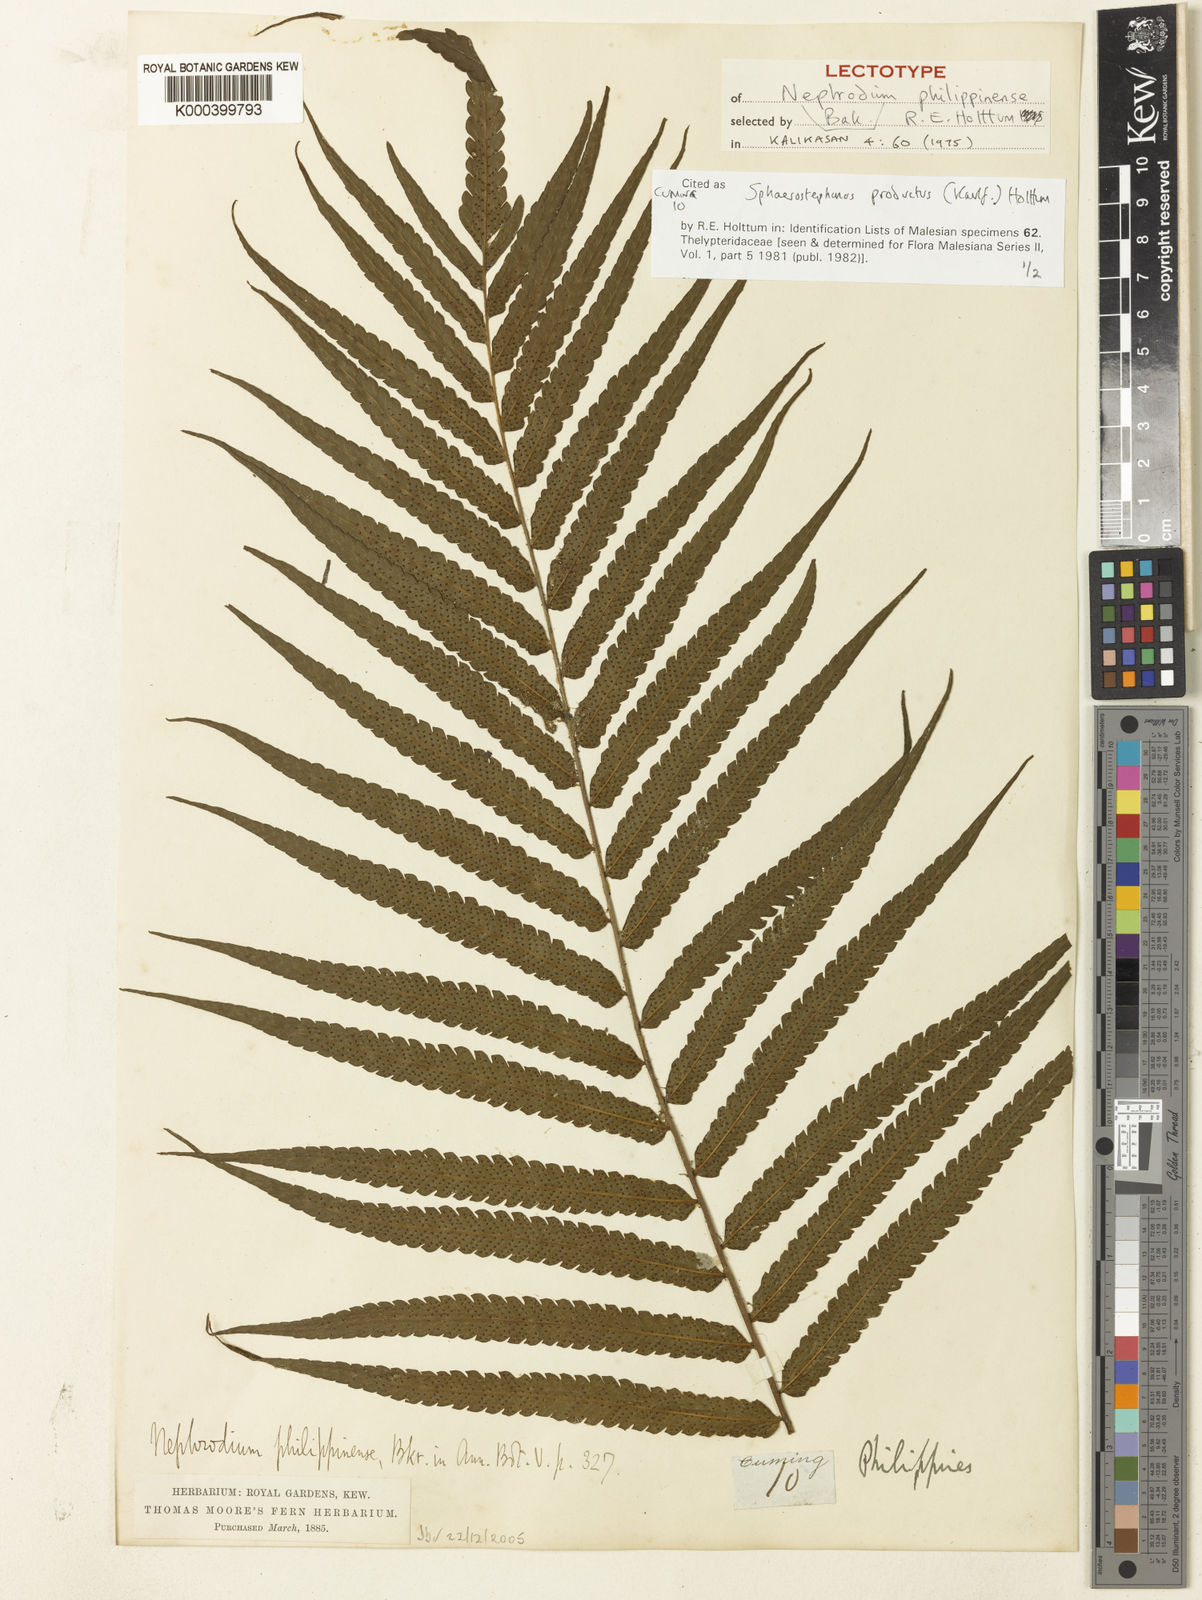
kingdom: Plantae
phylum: Tracheophyta
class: Polypodiopsida
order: Polypodiales
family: Thelypteridaceae
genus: Sphaerostephanos
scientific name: Sphaerostephanos productus
